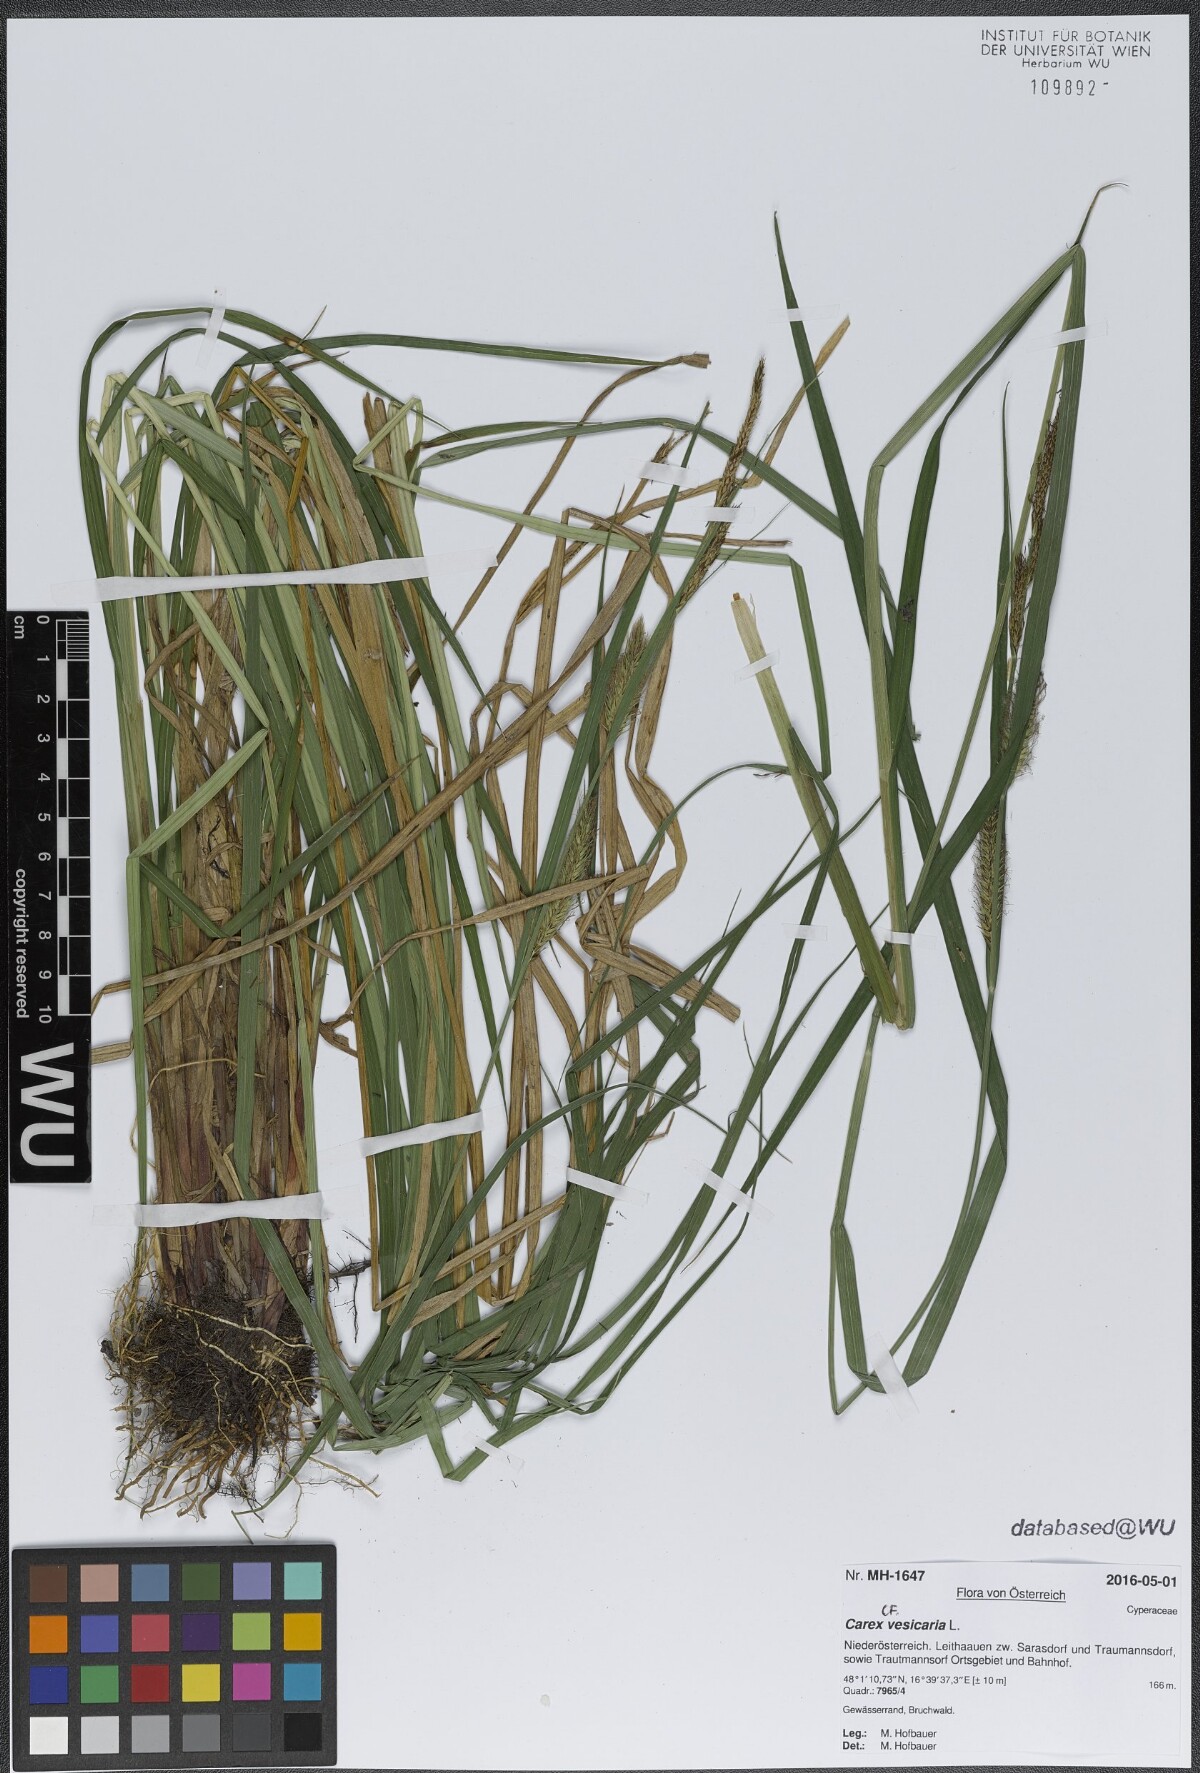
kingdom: Plantae
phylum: Tracheophyta
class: Liliopsida
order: Poales
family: Cyperaceae
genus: Carex
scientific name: Carex vesicaria
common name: Bladder-sedge
